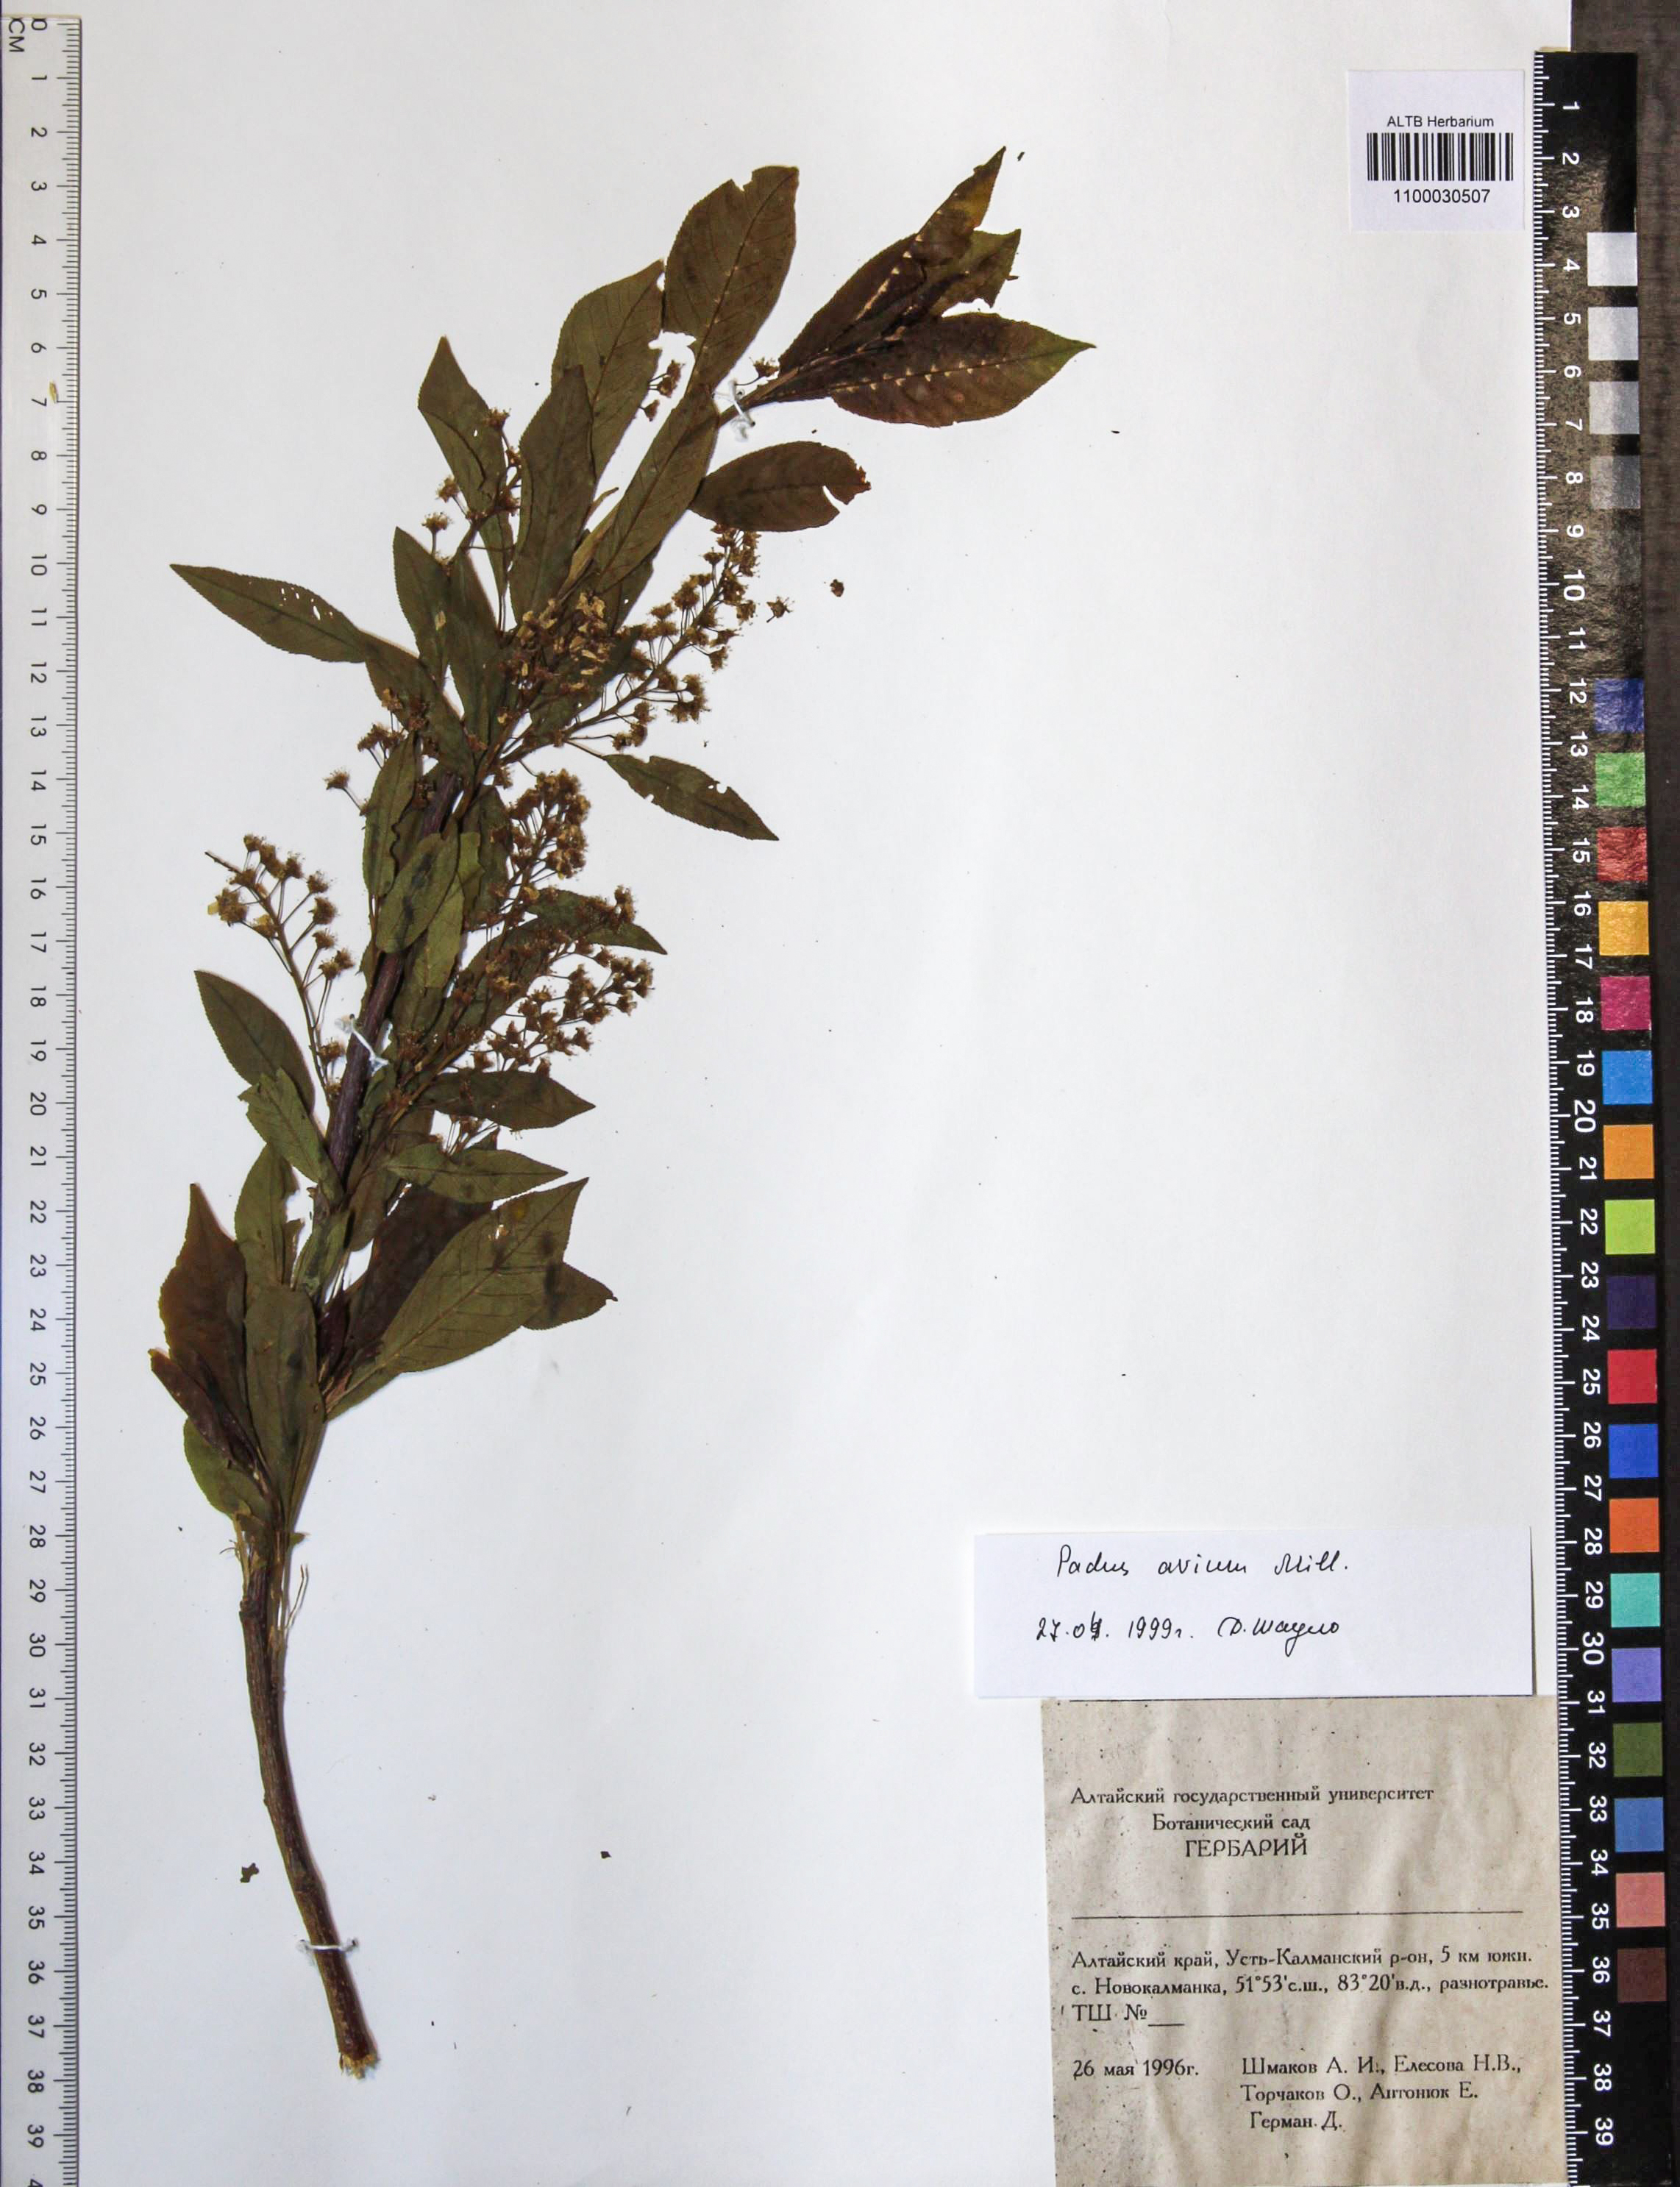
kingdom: Plantae
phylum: Tracheophyta
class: Magnoliopsida
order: Rosales
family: Rosaceae
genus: Prunus
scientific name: Prunus padus
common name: Bird cherry
